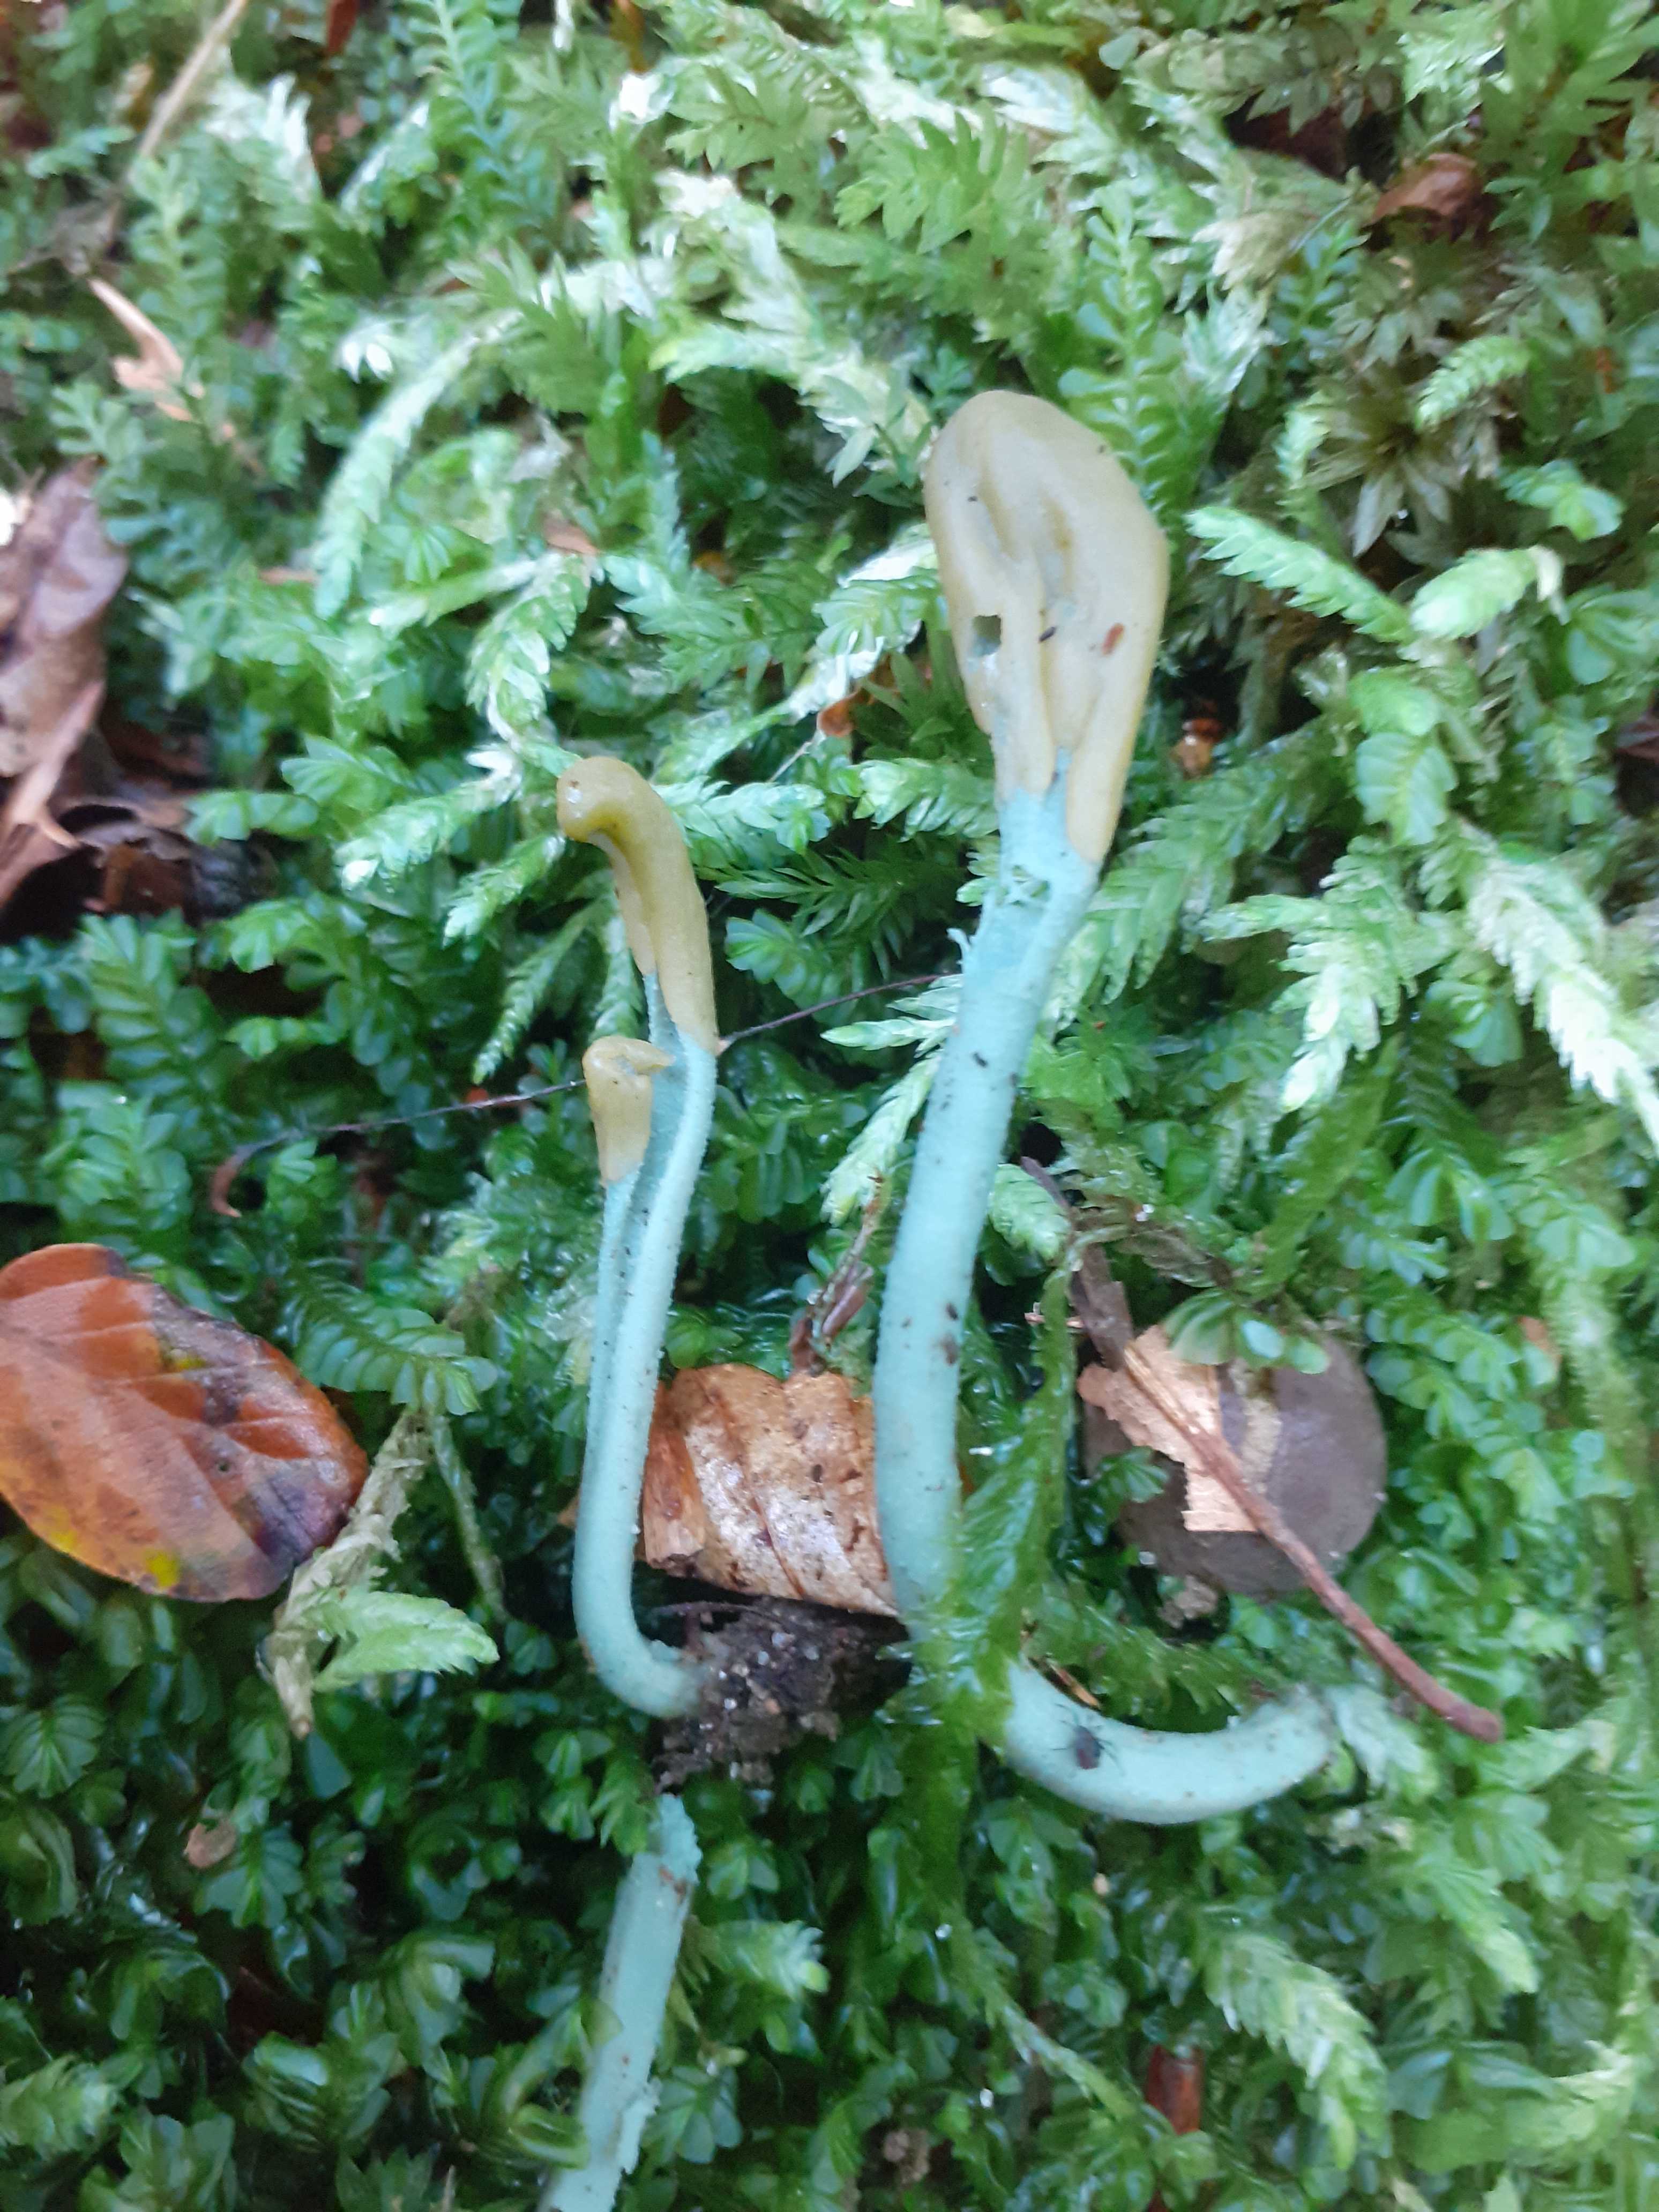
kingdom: Fungi
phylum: Ascomycota
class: Leotiomycetes
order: Leotiales
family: Leotiaceae
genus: Microglossum
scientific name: Microglossum griseoviride
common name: grågrøn farvetunge
